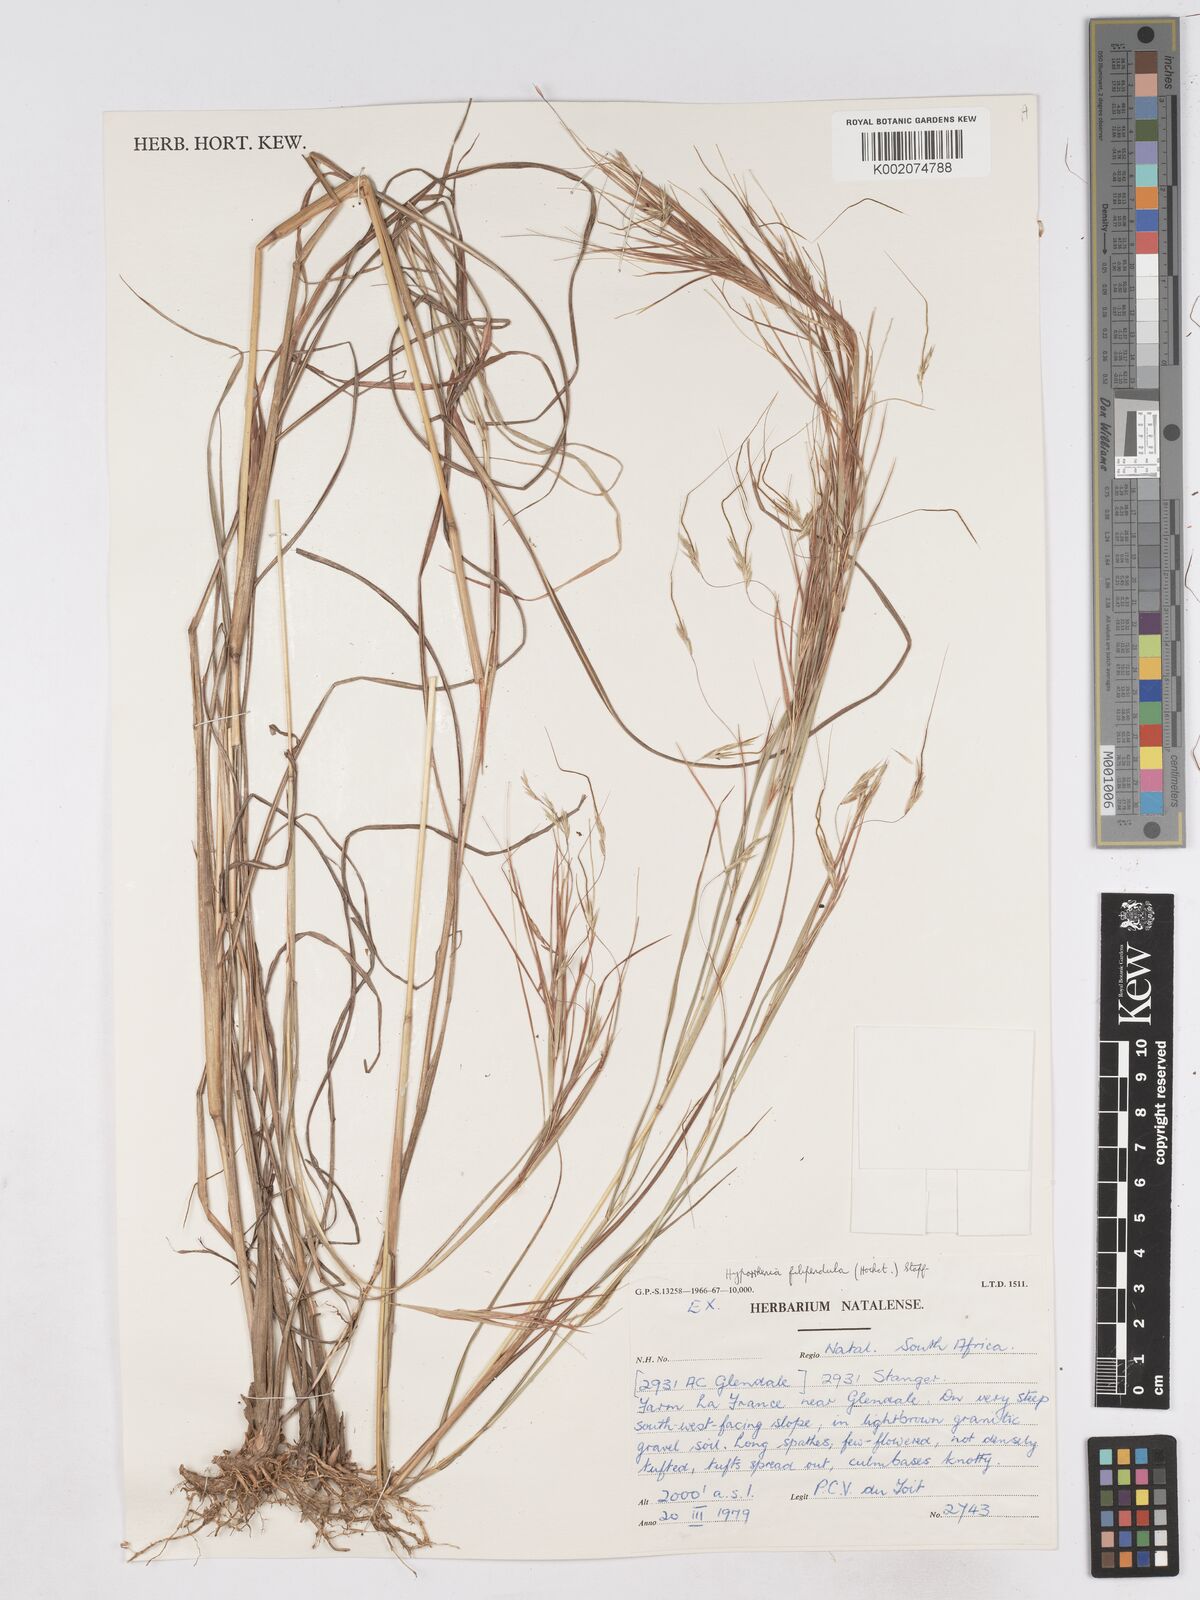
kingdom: Plantae
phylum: Tracheophyta
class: Liliopsida
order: Poales
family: Poaceae
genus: Hyparrhenia
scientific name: Hyparrhenia filipendula
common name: Tambookie grass
